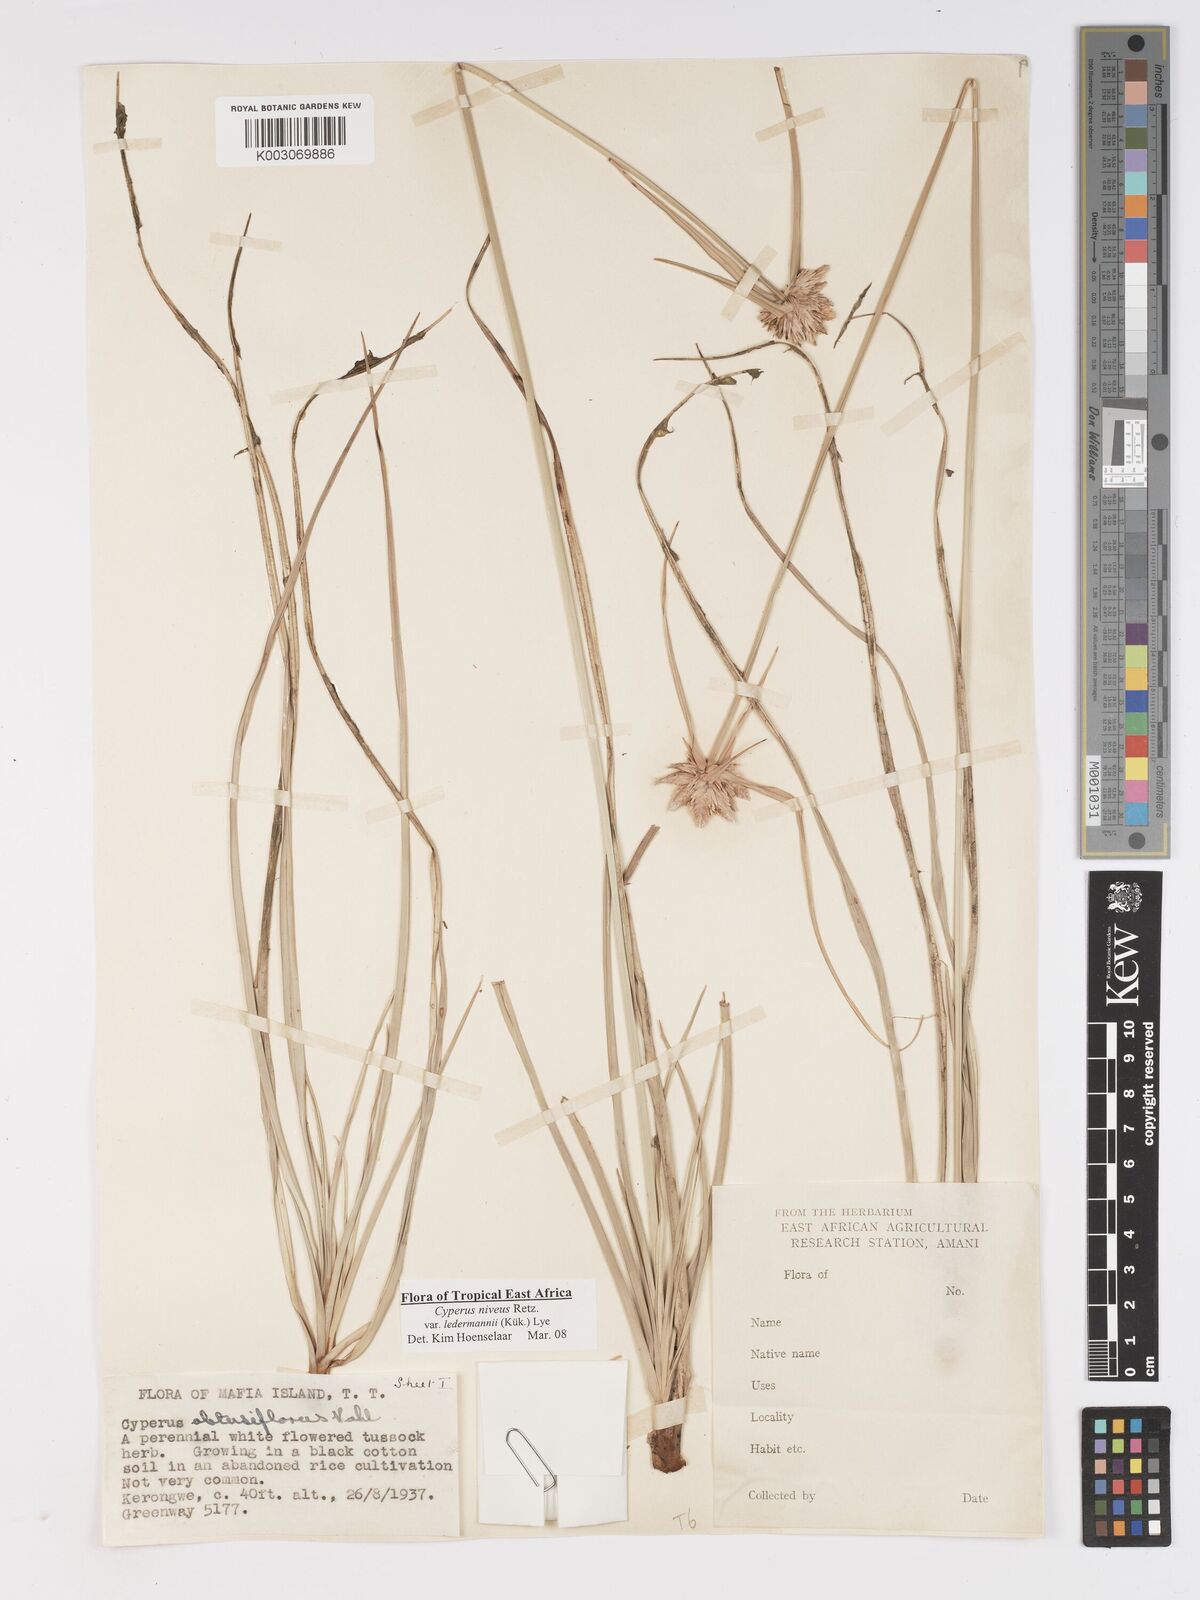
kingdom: Plantae
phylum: Tracheophyta
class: Liliopsida
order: Poales
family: Cyperaceae
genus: Cyperus
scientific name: Cyperus niveus
